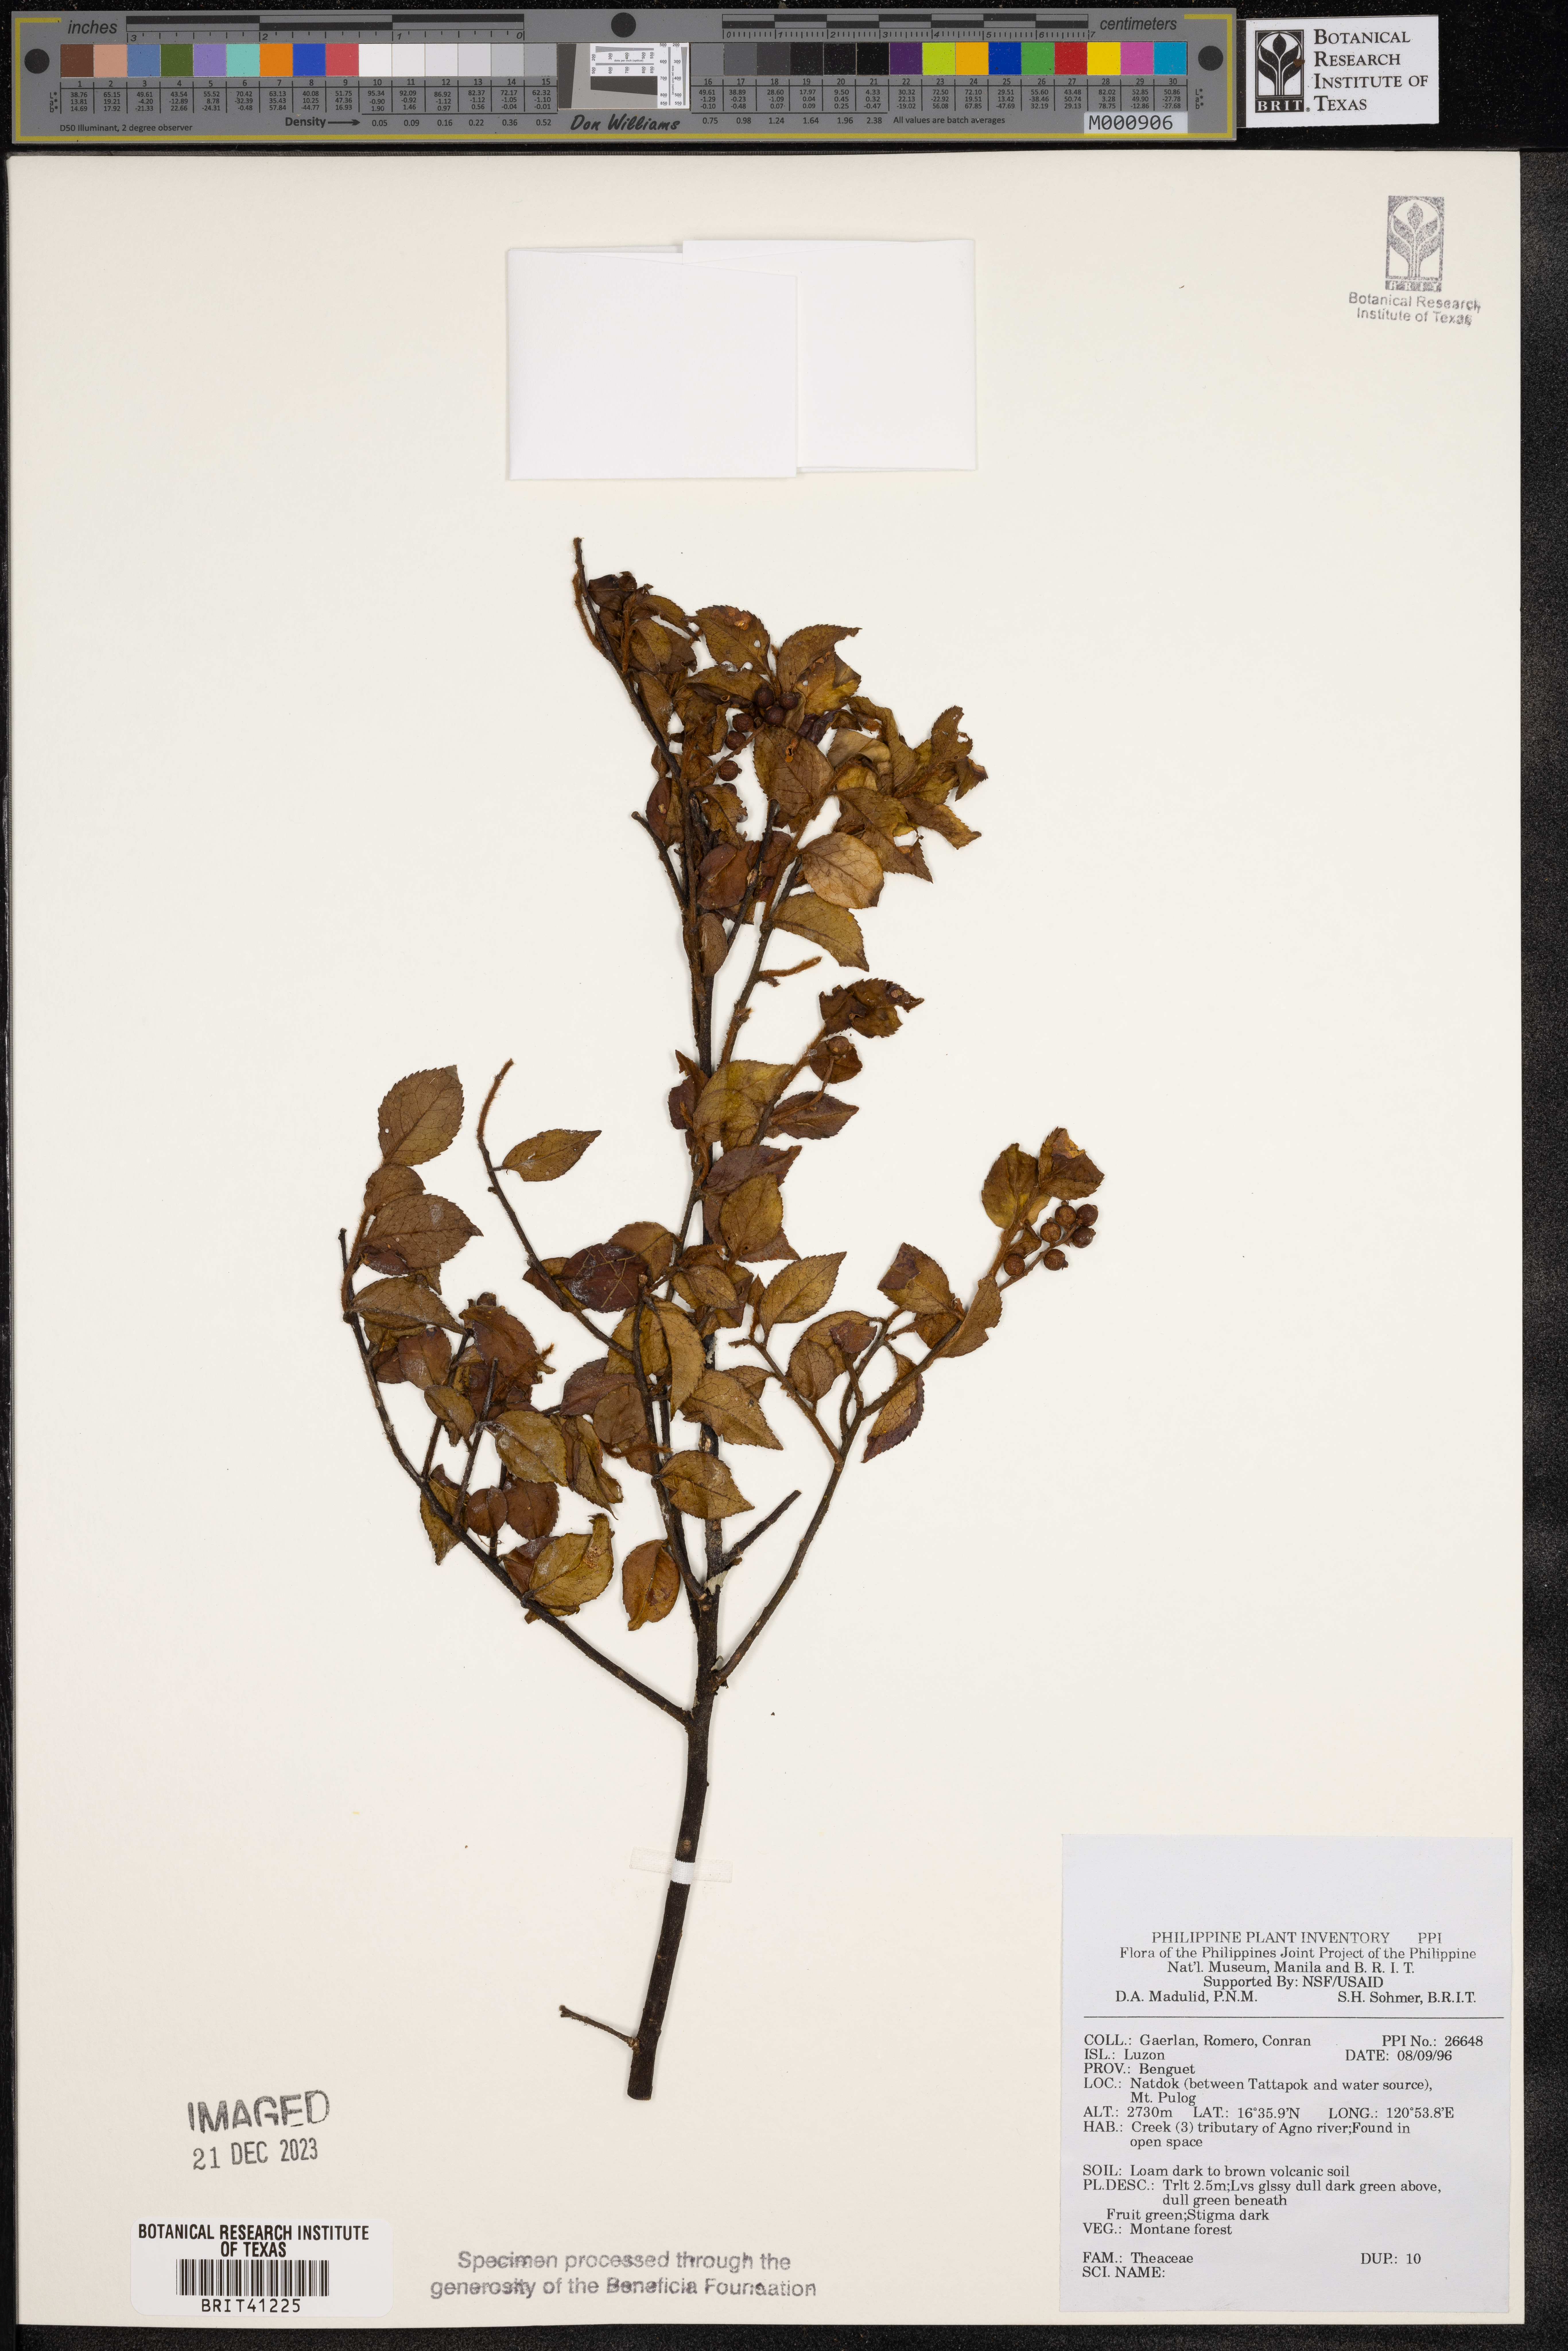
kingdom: Plantae
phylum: Tracheophyta
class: Magnoliopsida
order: Ericales
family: Theaceae
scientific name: Theaceae
